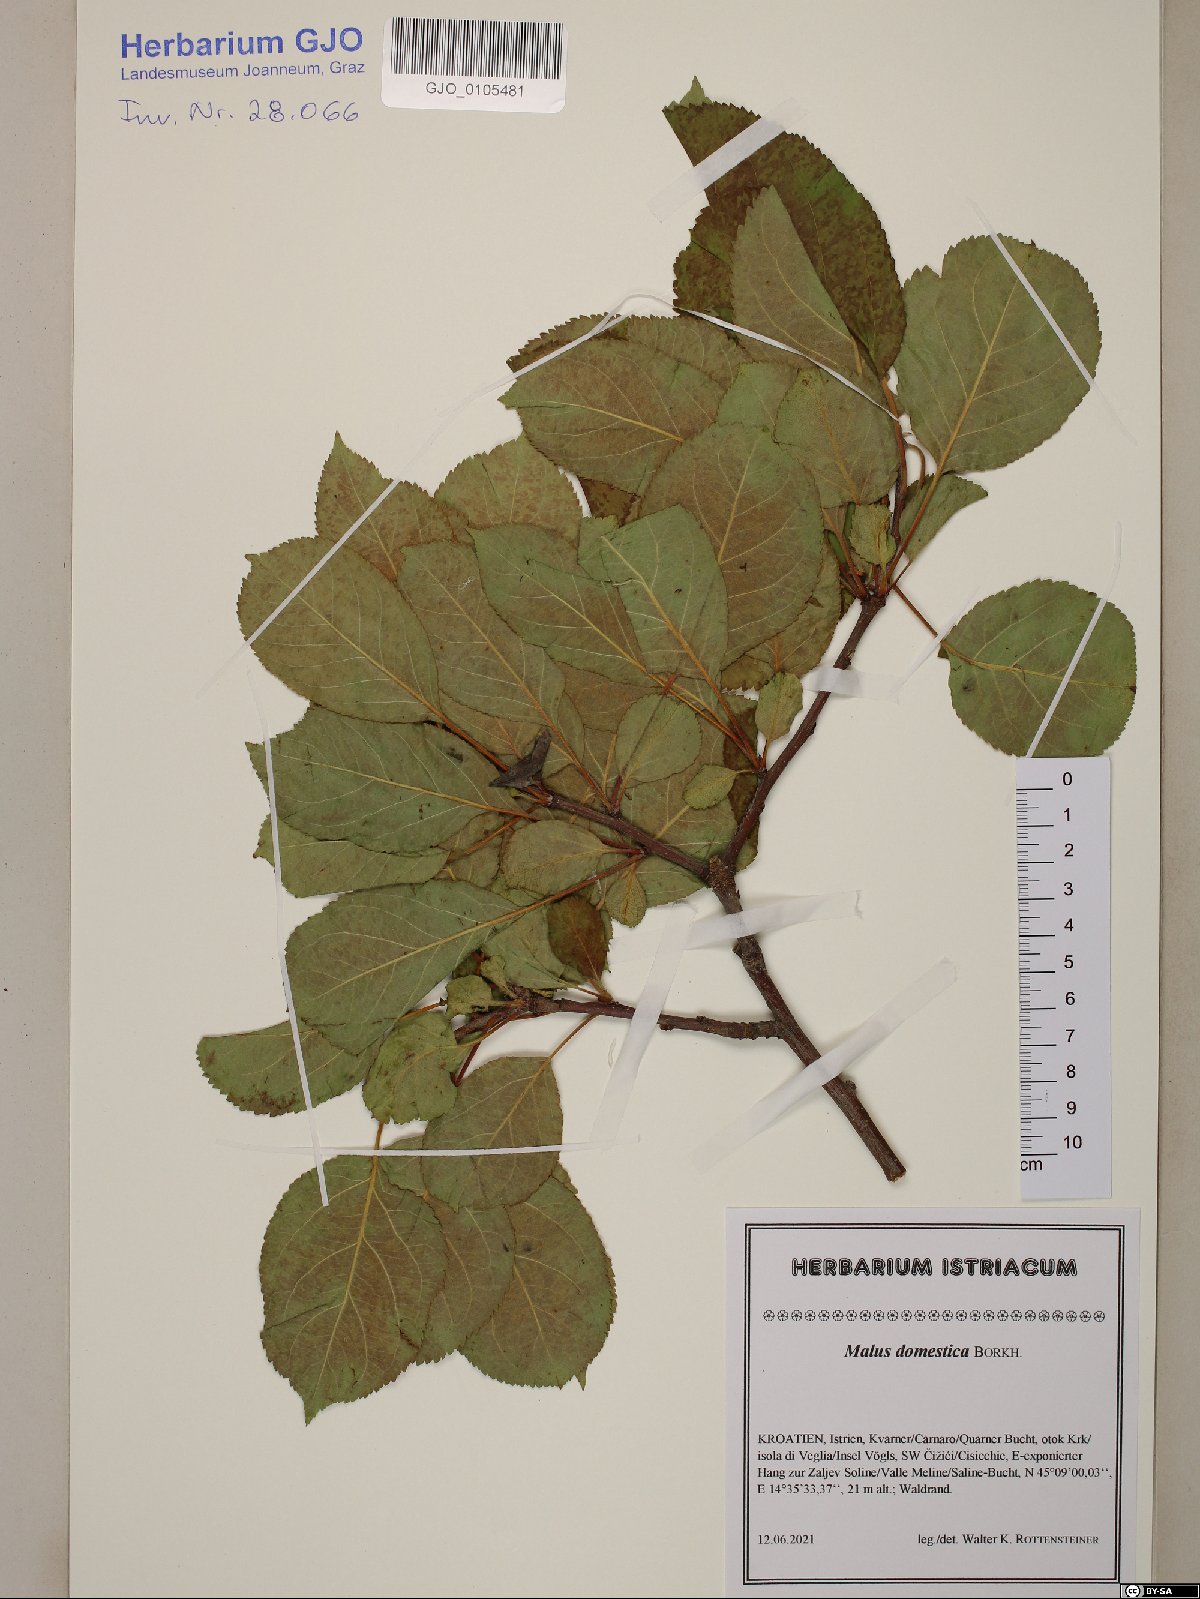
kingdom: Plantae
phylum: Tracheophyta
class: Magnoliopsida
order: Rosales
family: Rosaceae
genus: Malus
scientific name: Malus domestica
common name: Apple
